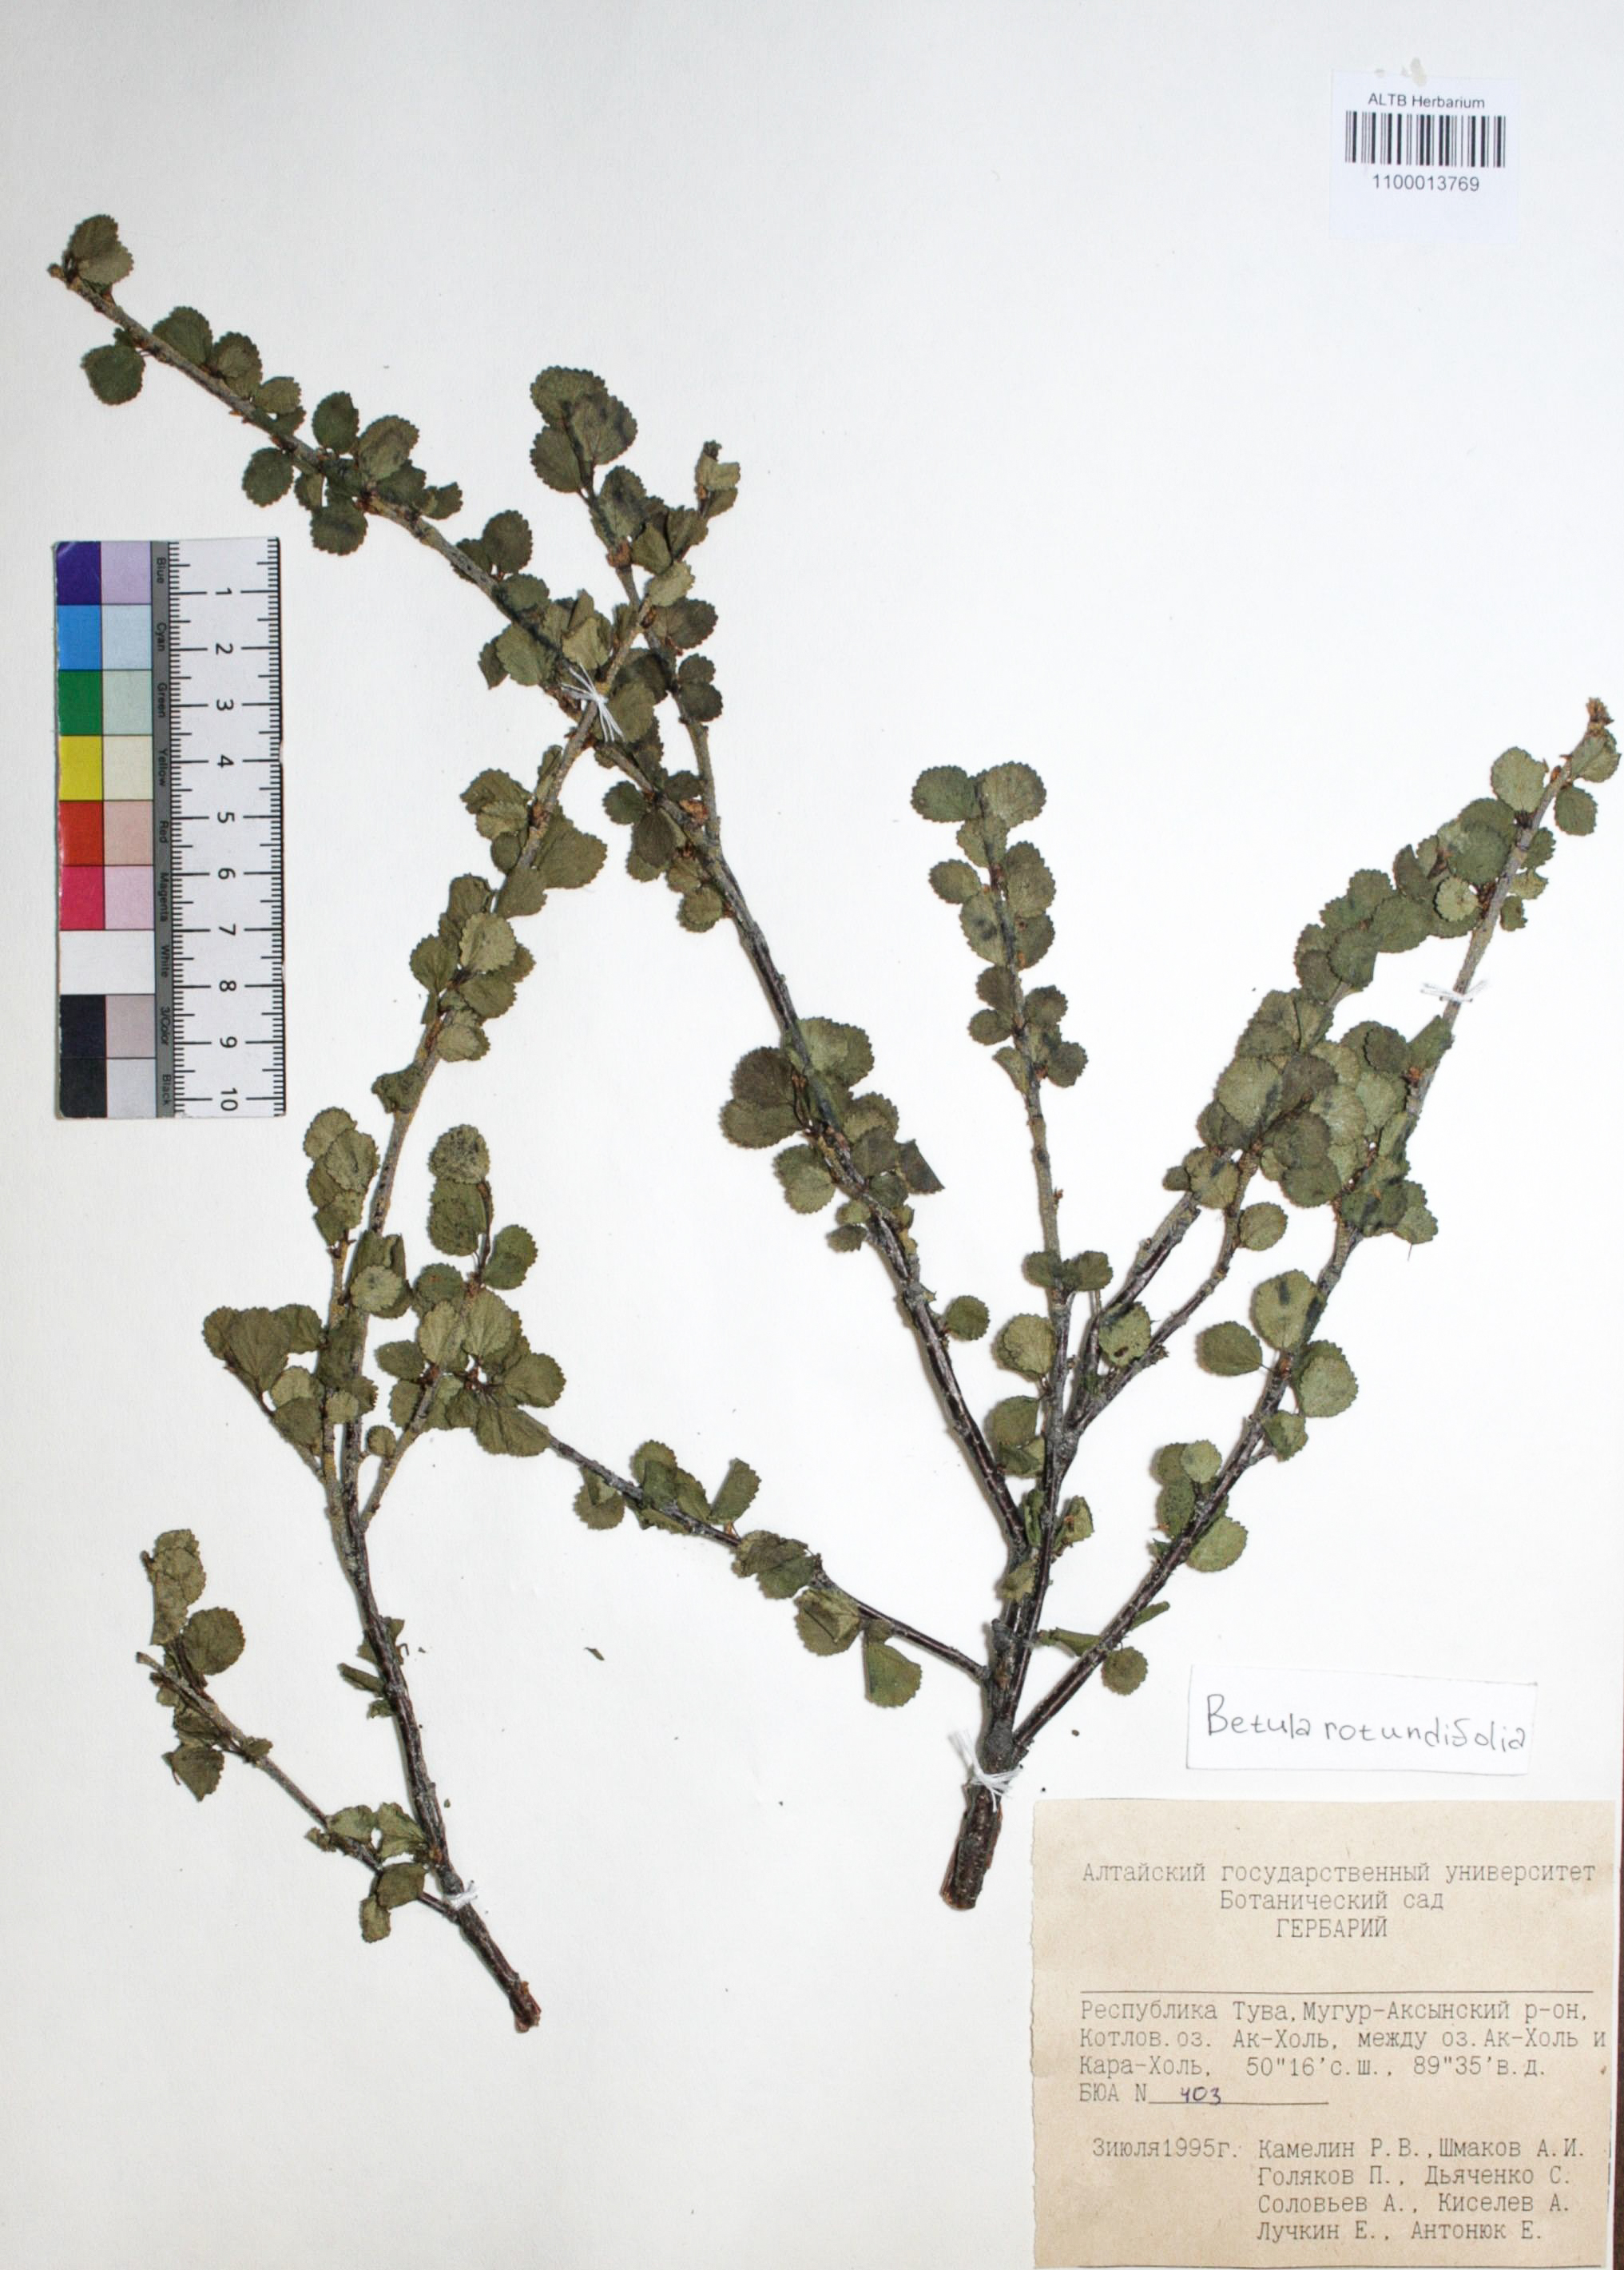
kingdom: Plantae
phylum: Tracheophyta
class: Magnoliopsida
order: Fagales
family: Betulaceae
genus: Betula
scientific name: Betula glandulosa
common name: Dwarf birch
